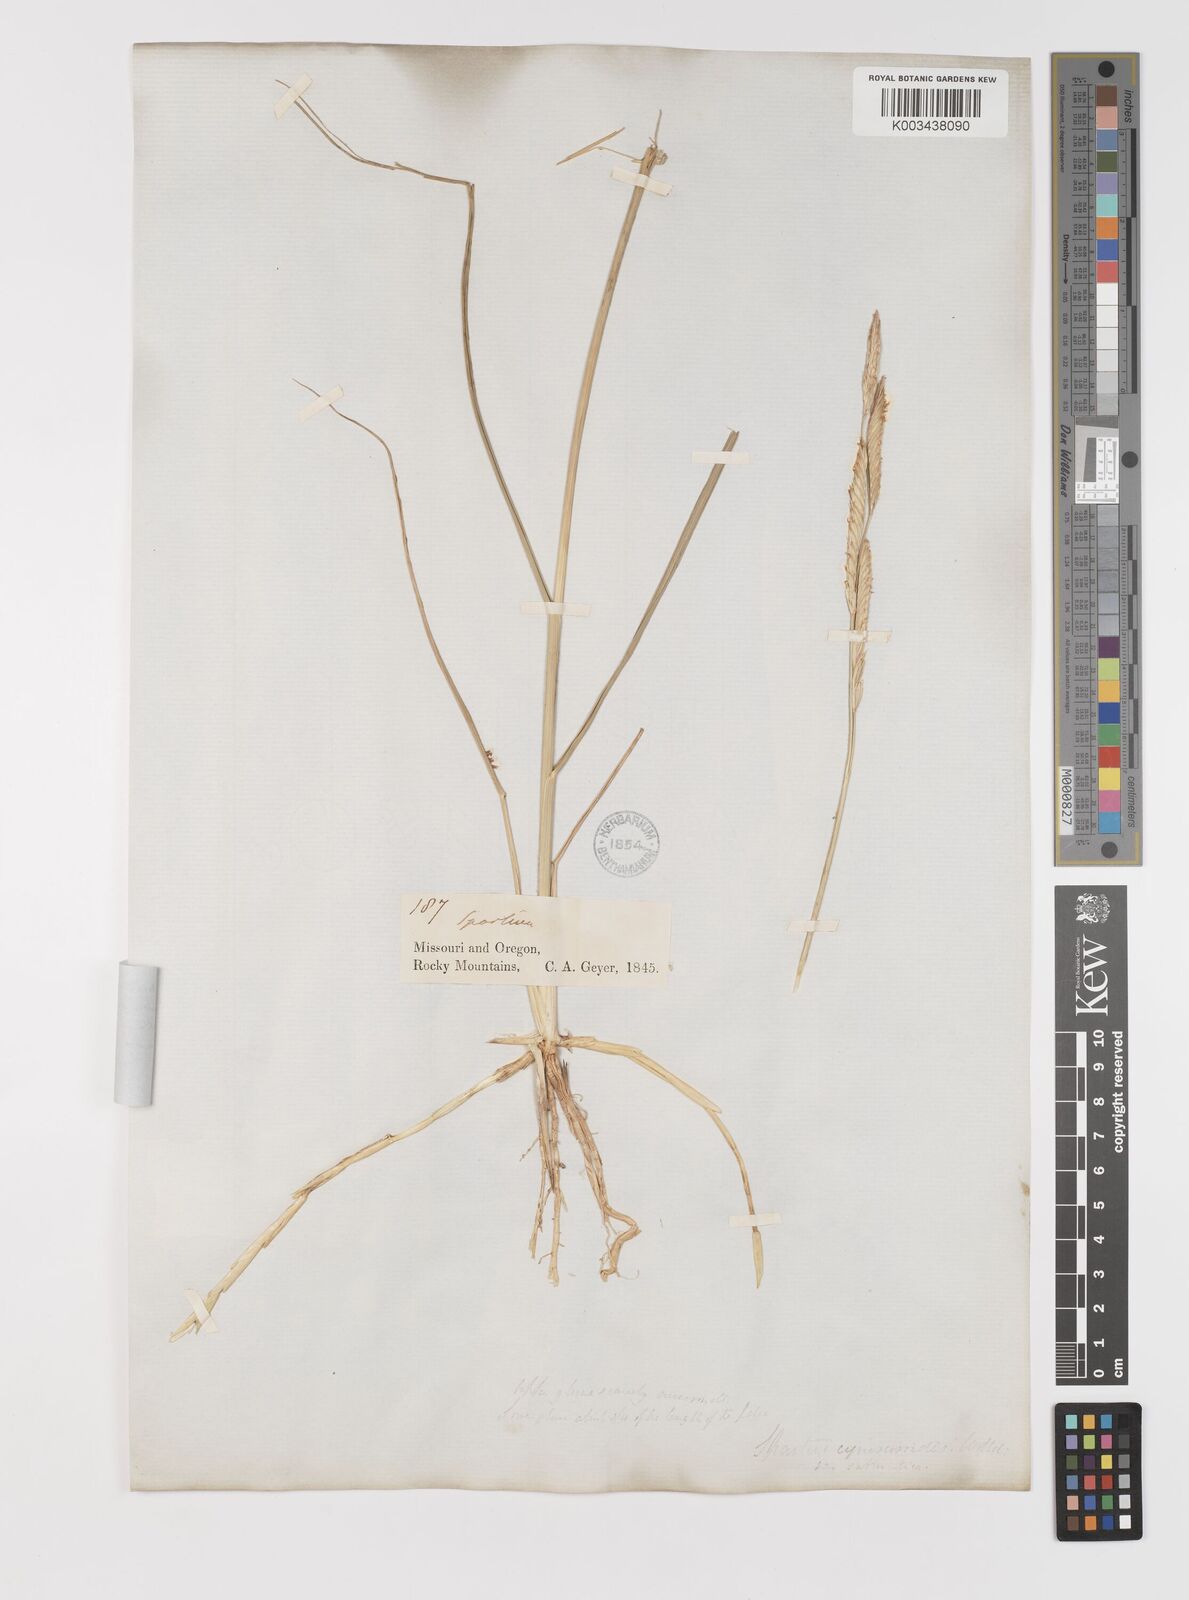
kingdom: Plantae
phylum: Tracheophyta
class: Liliopsida
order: Poales
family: Poaceae
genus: Sporobolus
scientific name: Sporobolus hookerianus
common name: Alkali cordgrass
